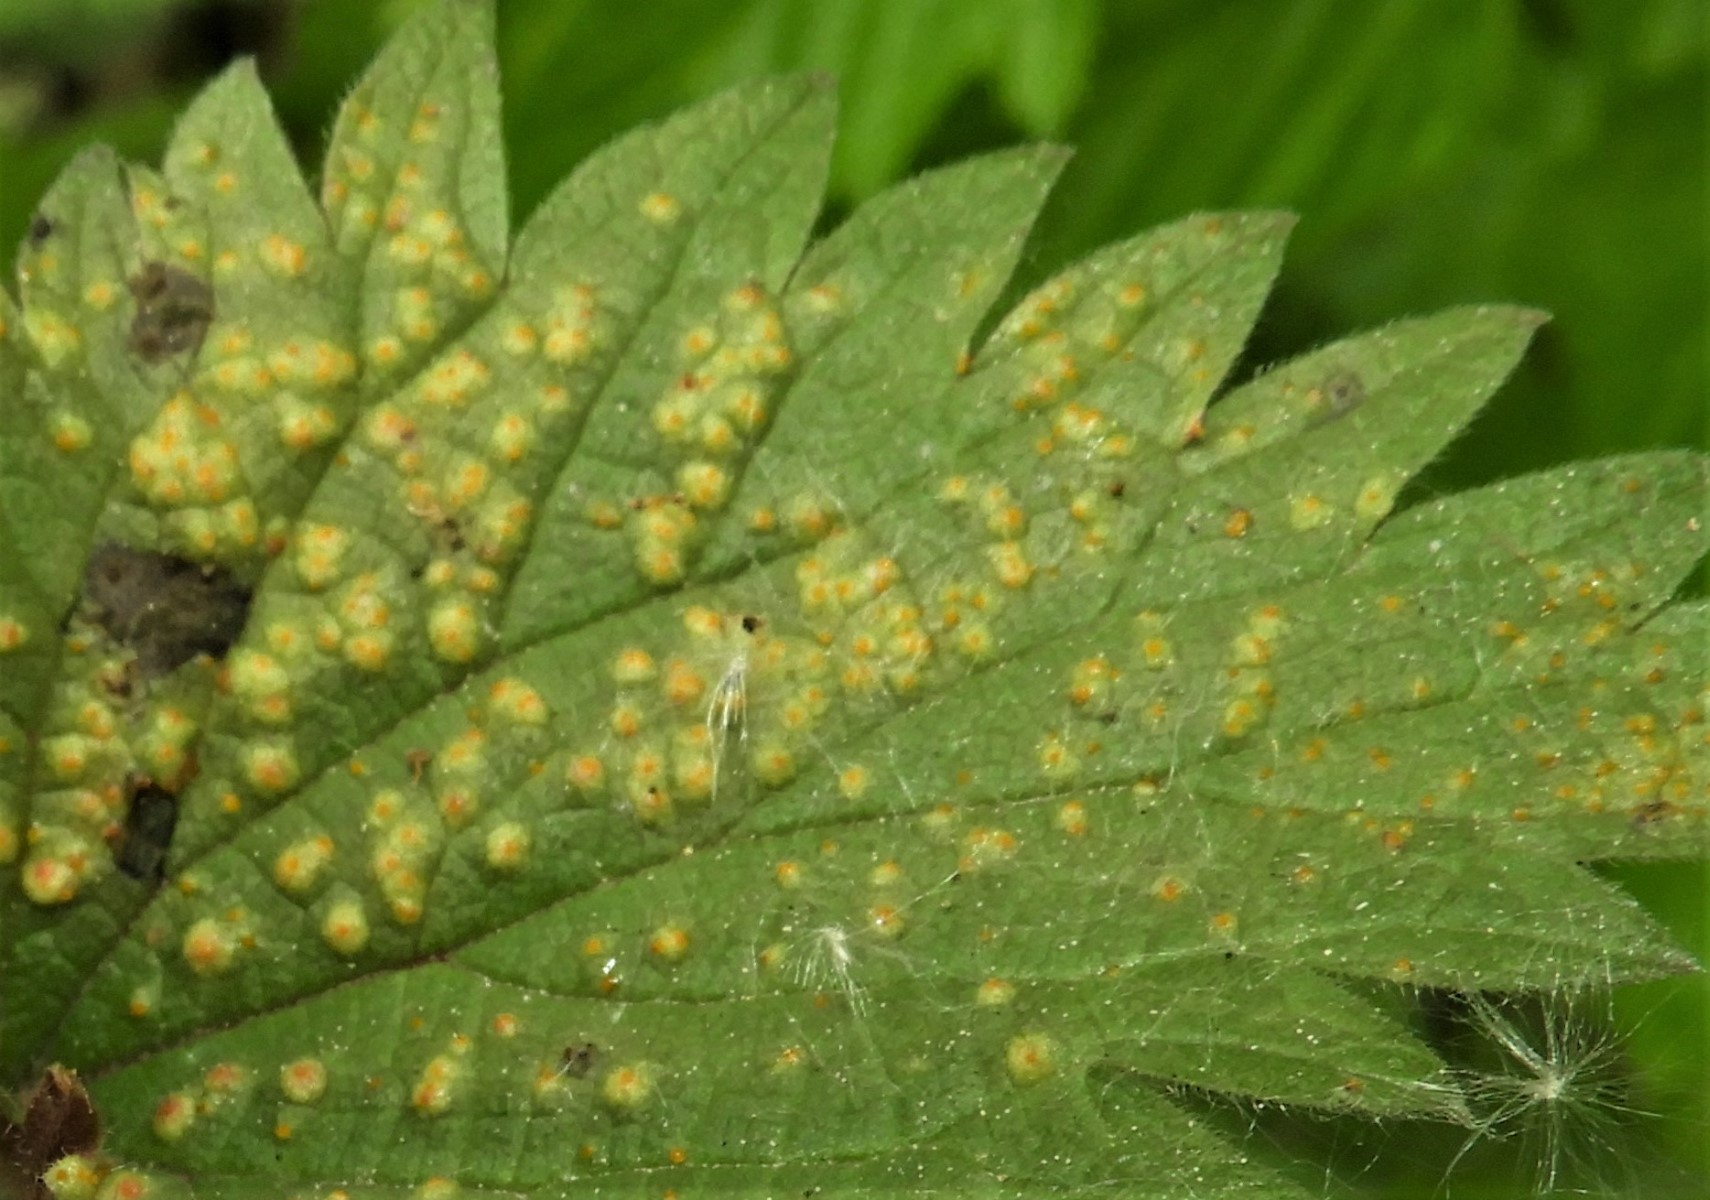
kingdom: Fungi
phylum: Basidiomycota
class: Pucciniomycetes
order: Pucciniales
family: Pucciniaceae
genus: Puccinia
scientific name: Puccinia urticata
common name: nældegalle-tvecellerust
